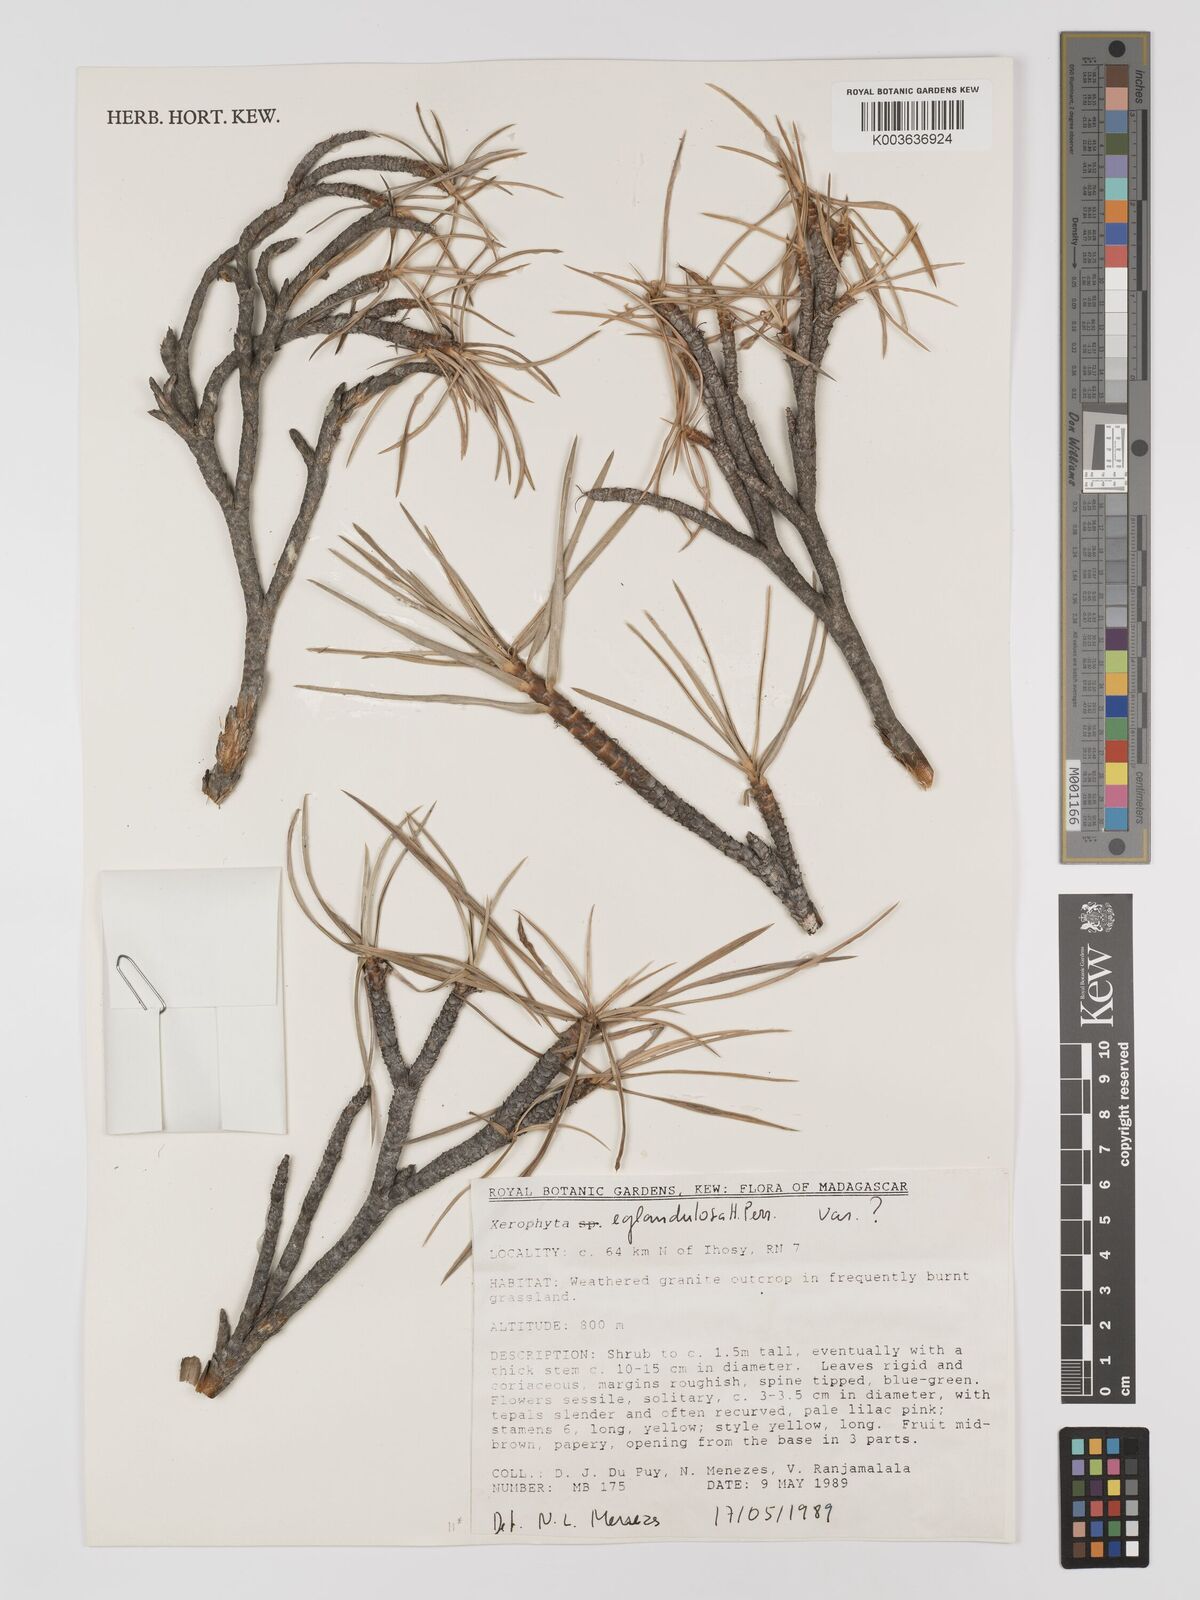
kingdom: Plantae
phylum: Tracheophyta
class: Liliopsida
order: Pandanales
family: Velloziaceae
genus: Xerophyta
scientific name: Xerophyta eglandulosa
